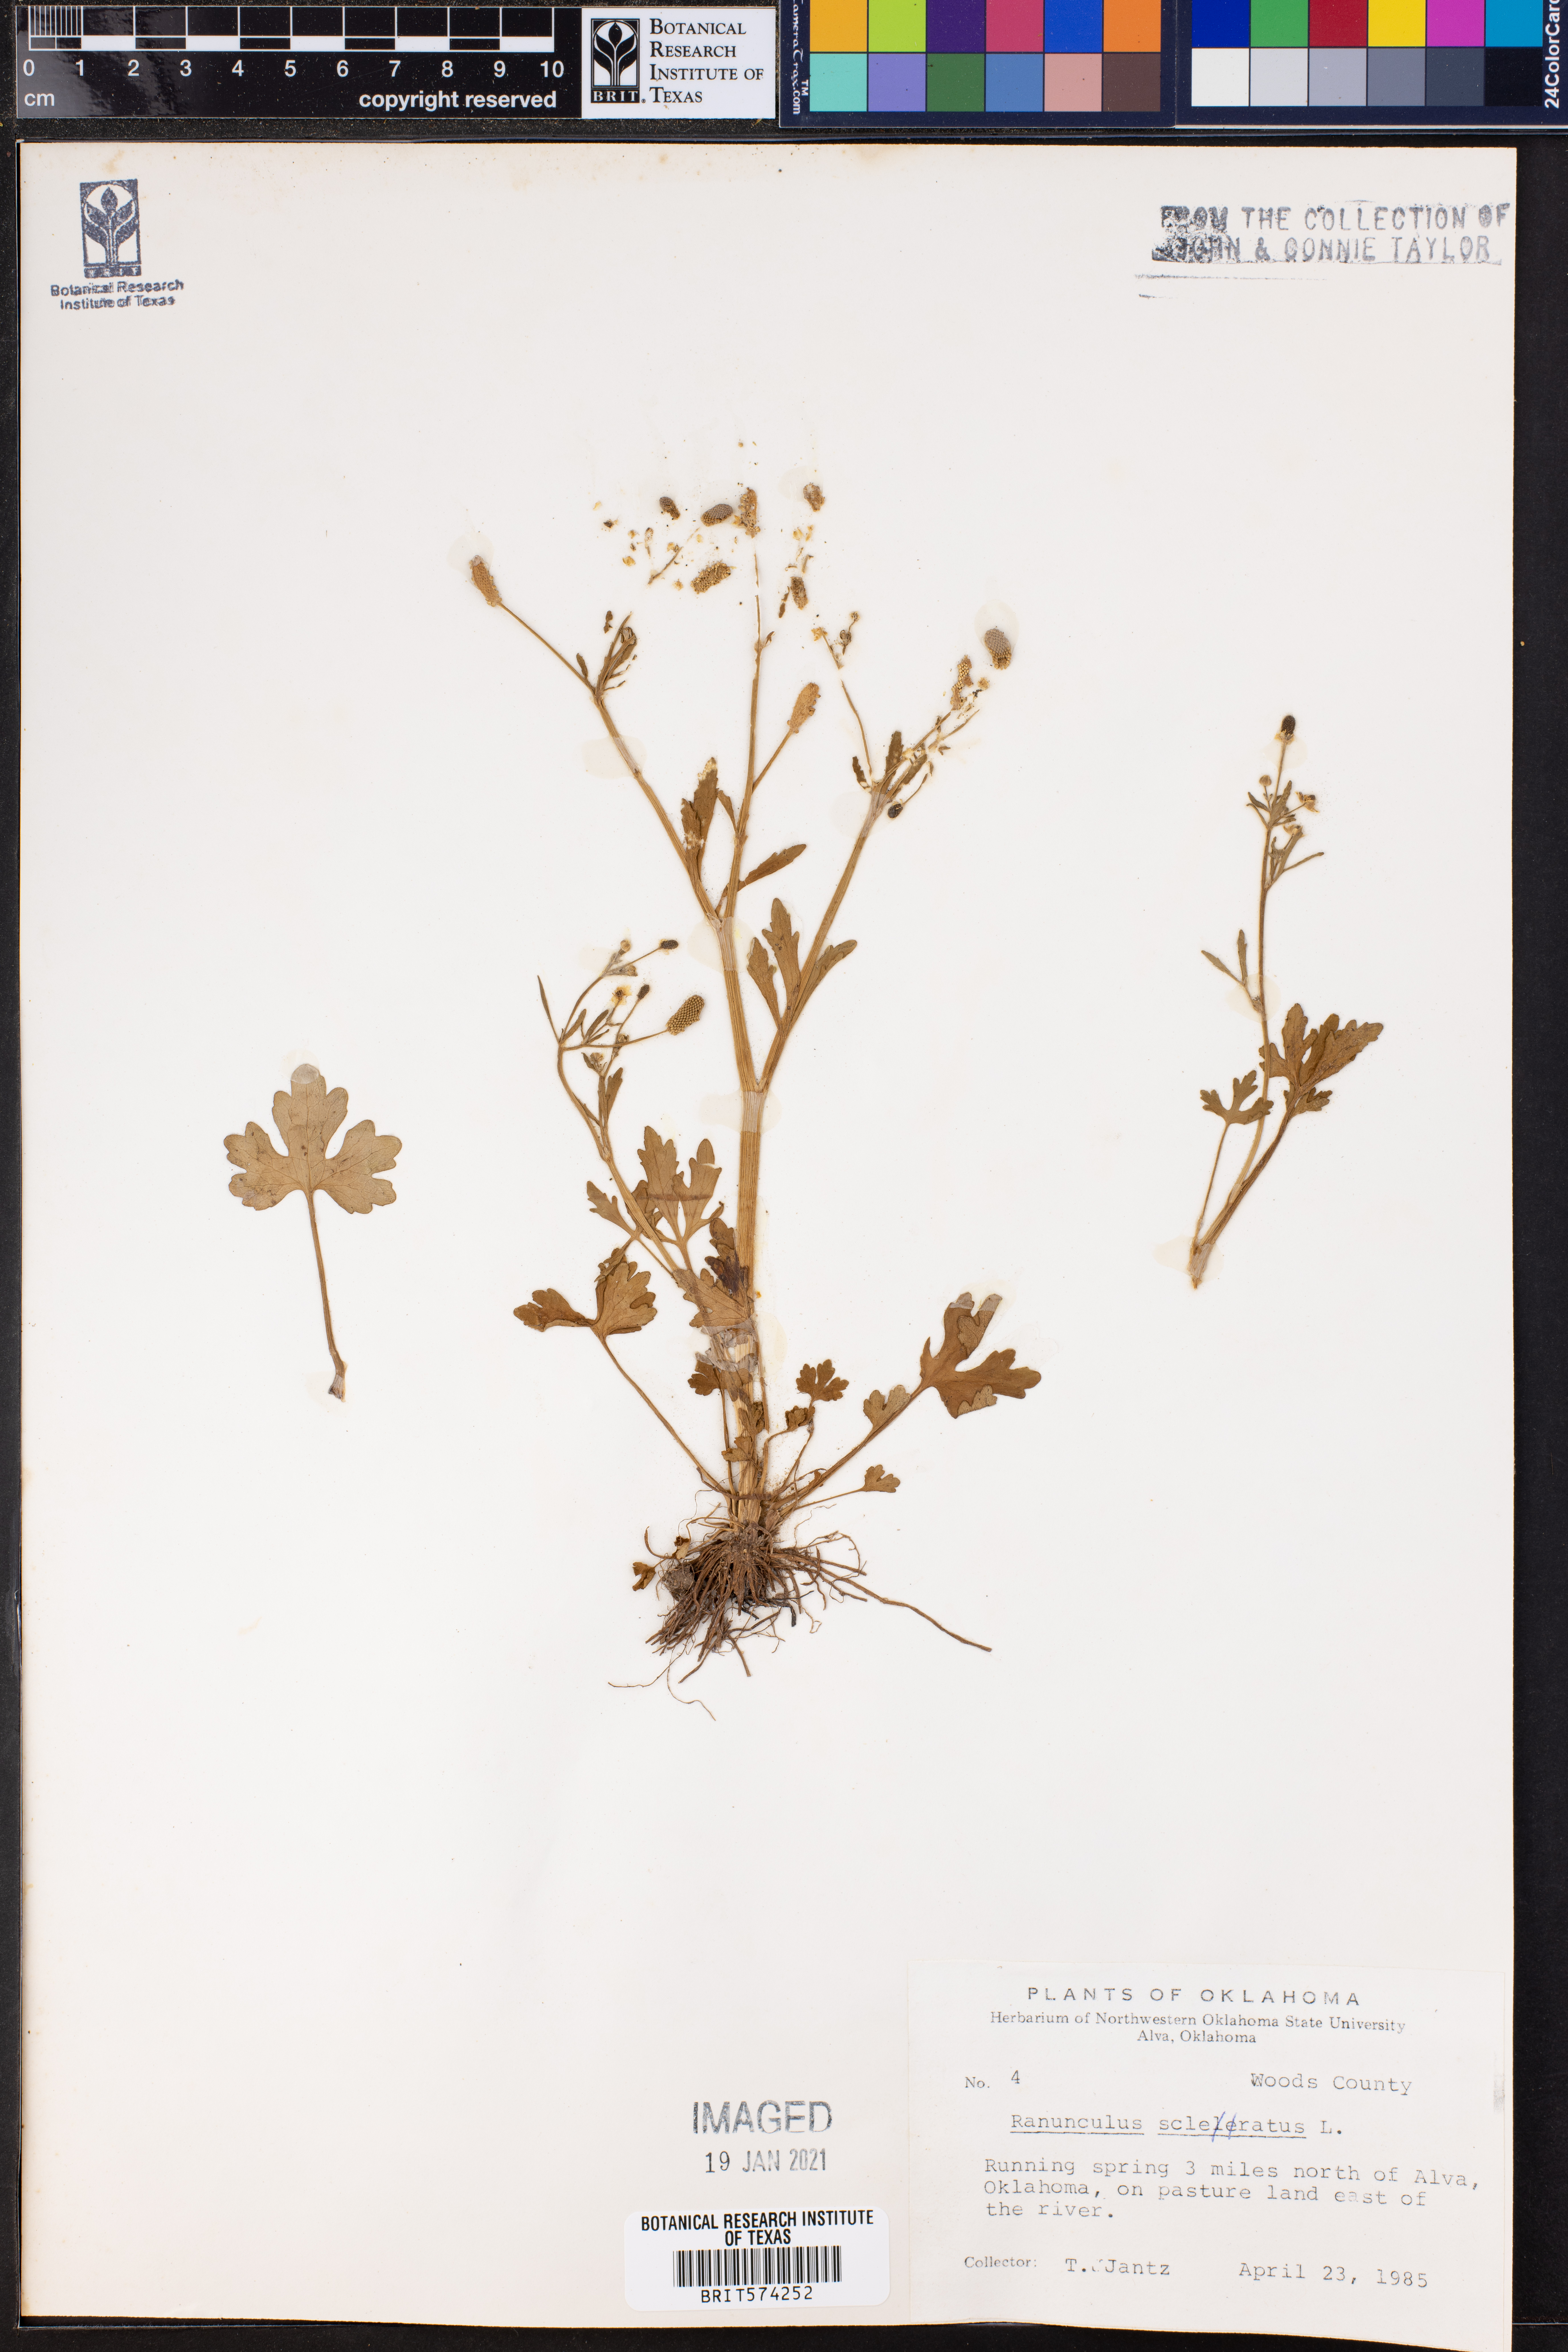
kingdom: Plantae
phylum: Tracheophyta
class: Magnoliopsida
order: Ranunculales
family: Ranunculaceae
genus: Ranunculus
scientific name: Ranunculus sceleratus
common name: Celery-leaved buttercup
